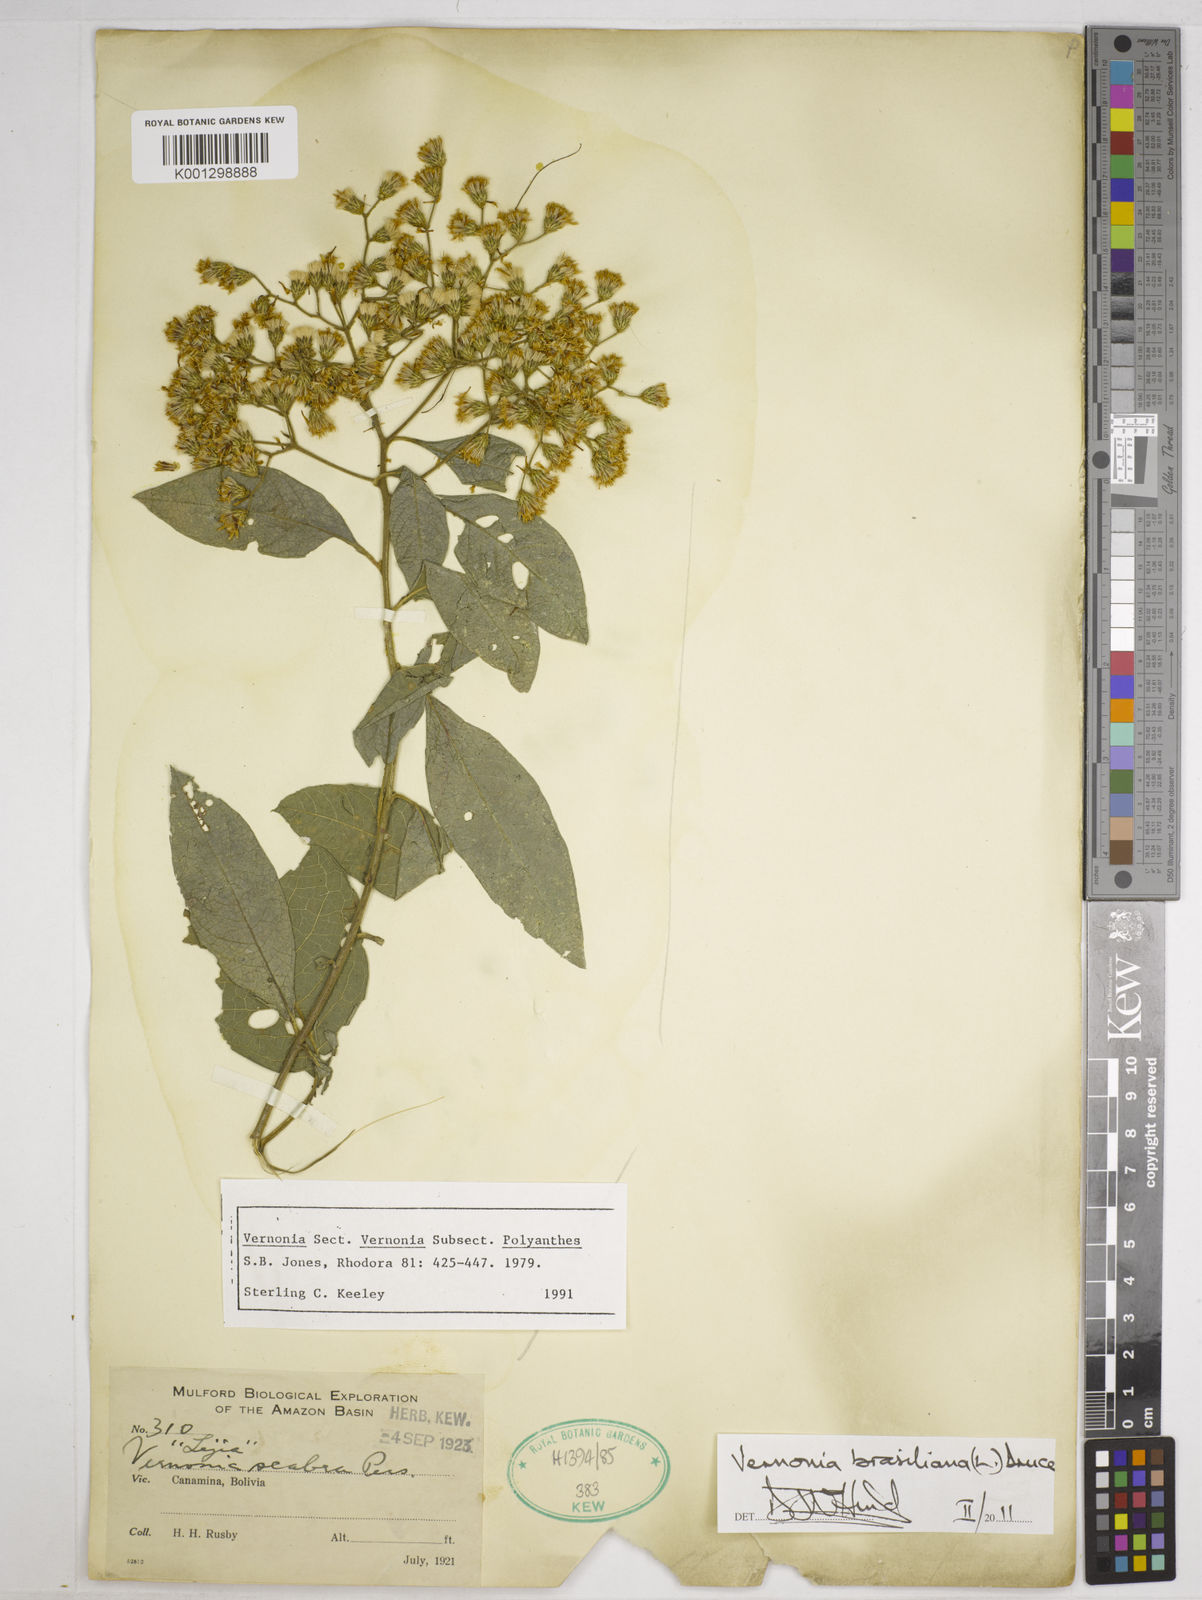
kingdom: Plantae
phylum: Tracheophyta
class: Magnoliopsida
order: Asterales
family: Asteraceae
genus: Vernonanthura
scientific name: Vernonanthura brasiliana
